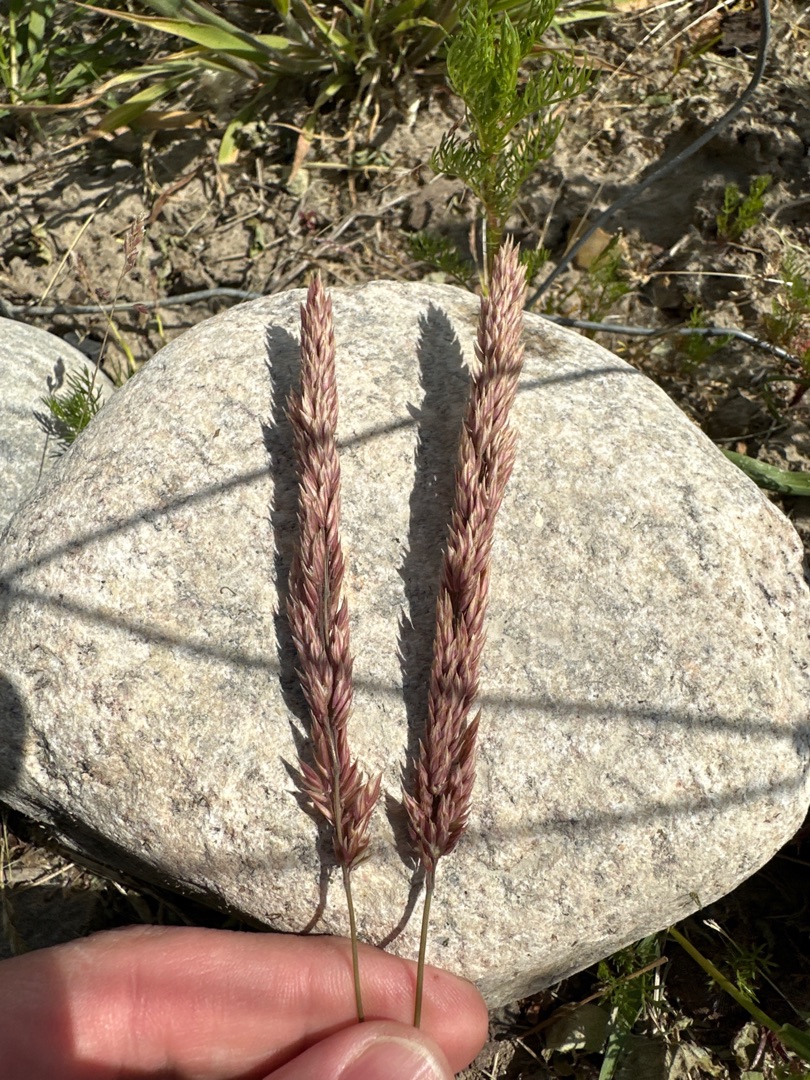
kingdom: Plantae
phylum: Tracheophyta
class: Liliopsida
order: Poales
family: Poaceae
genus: Holcus
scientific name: Holcus lanatus
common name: Fløjlsgræs
